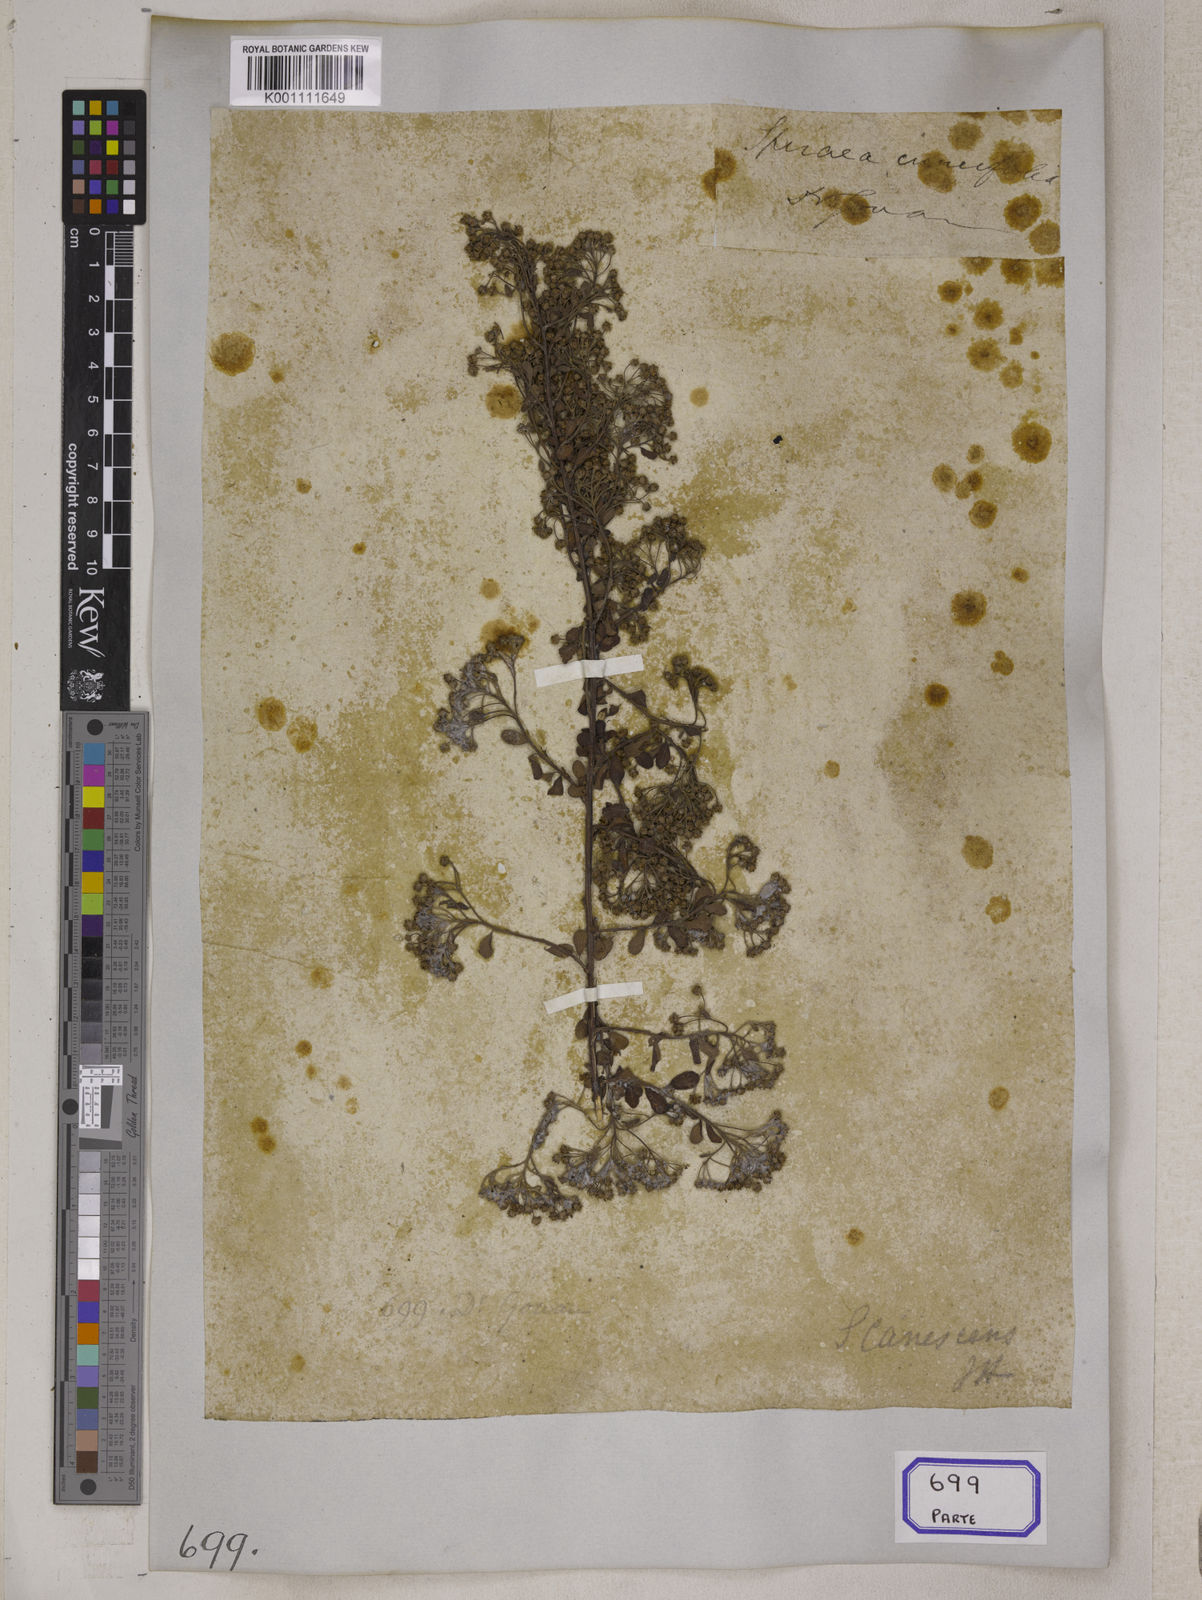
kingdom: Plantae
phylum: Tracheophyta
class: Magnoliopsida
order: Rosales
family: Rosaceae
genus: Spiraea
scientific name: Spiraea
